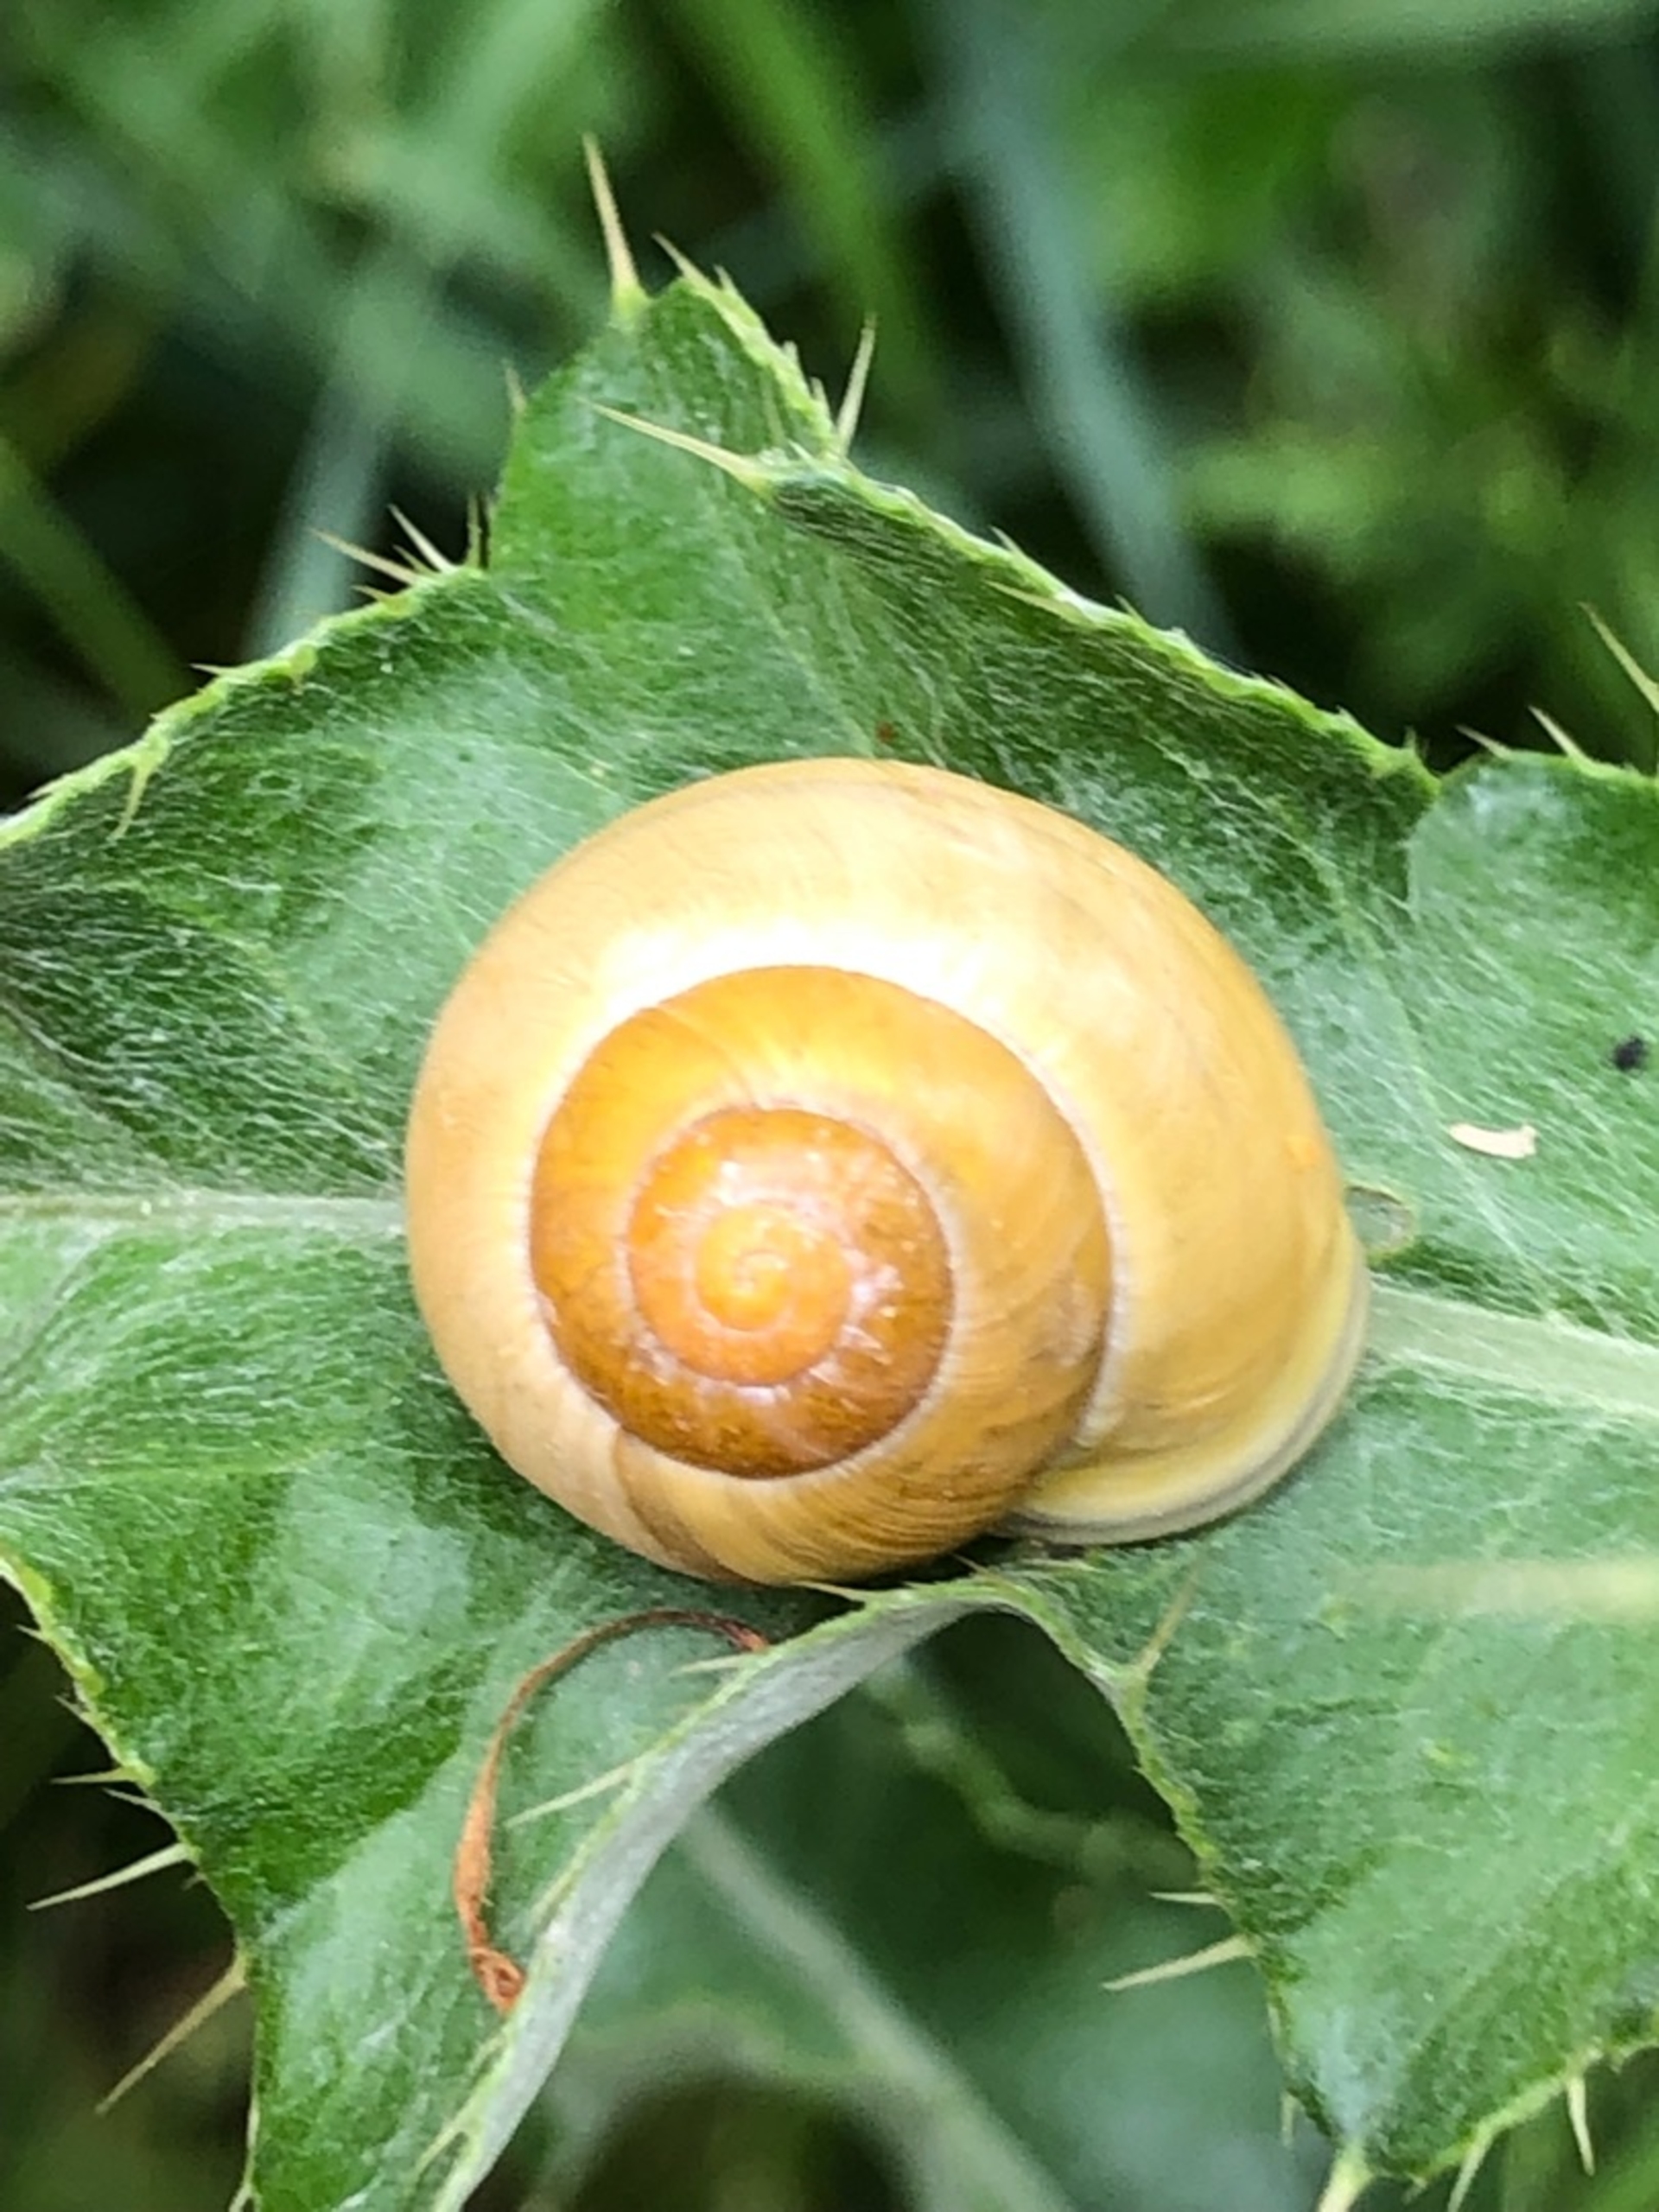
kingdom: Animalia
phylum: Mollusca
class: Gastropoda
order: Stylommatophora
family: Helicidae
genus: Cepaea
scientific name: Cepaea hortensis
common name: Havesnegl
